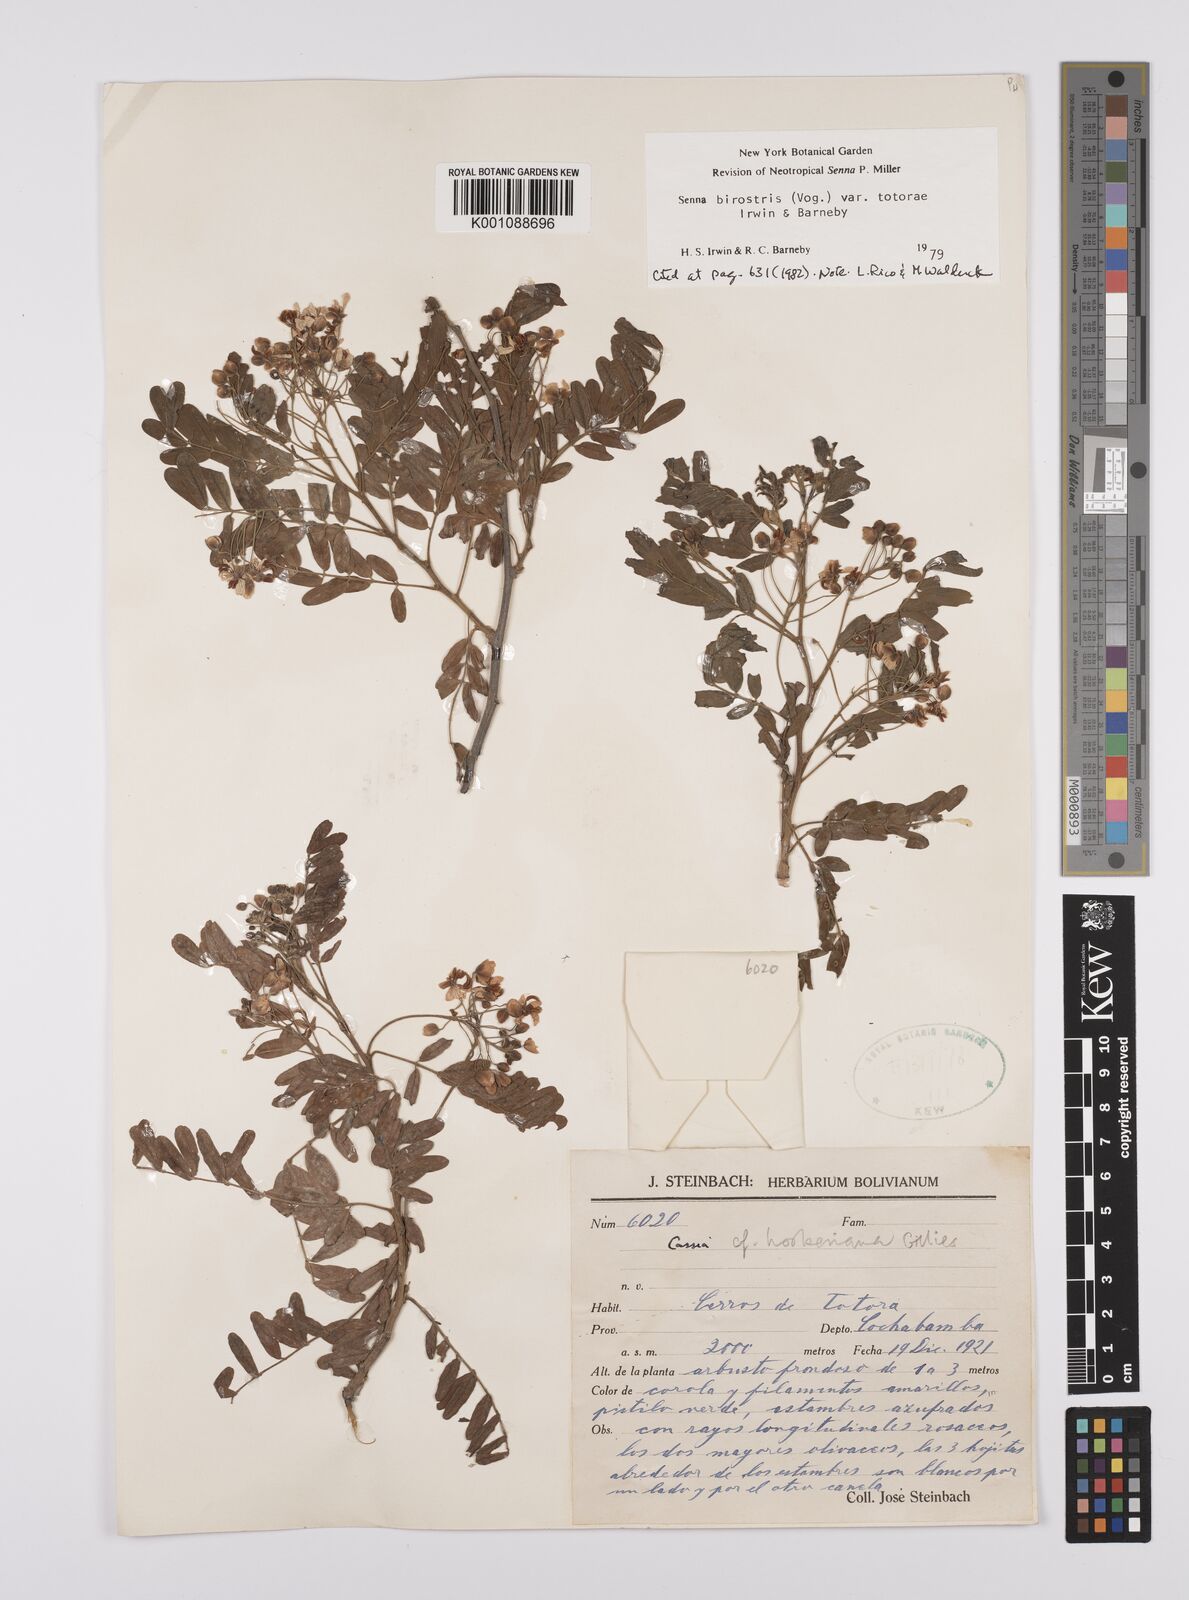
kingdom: Plantae
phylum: Tracheophyta
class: Magnoliopsida
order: Fabales
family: Fabaceae
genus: Senna
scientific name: Senna birostris
